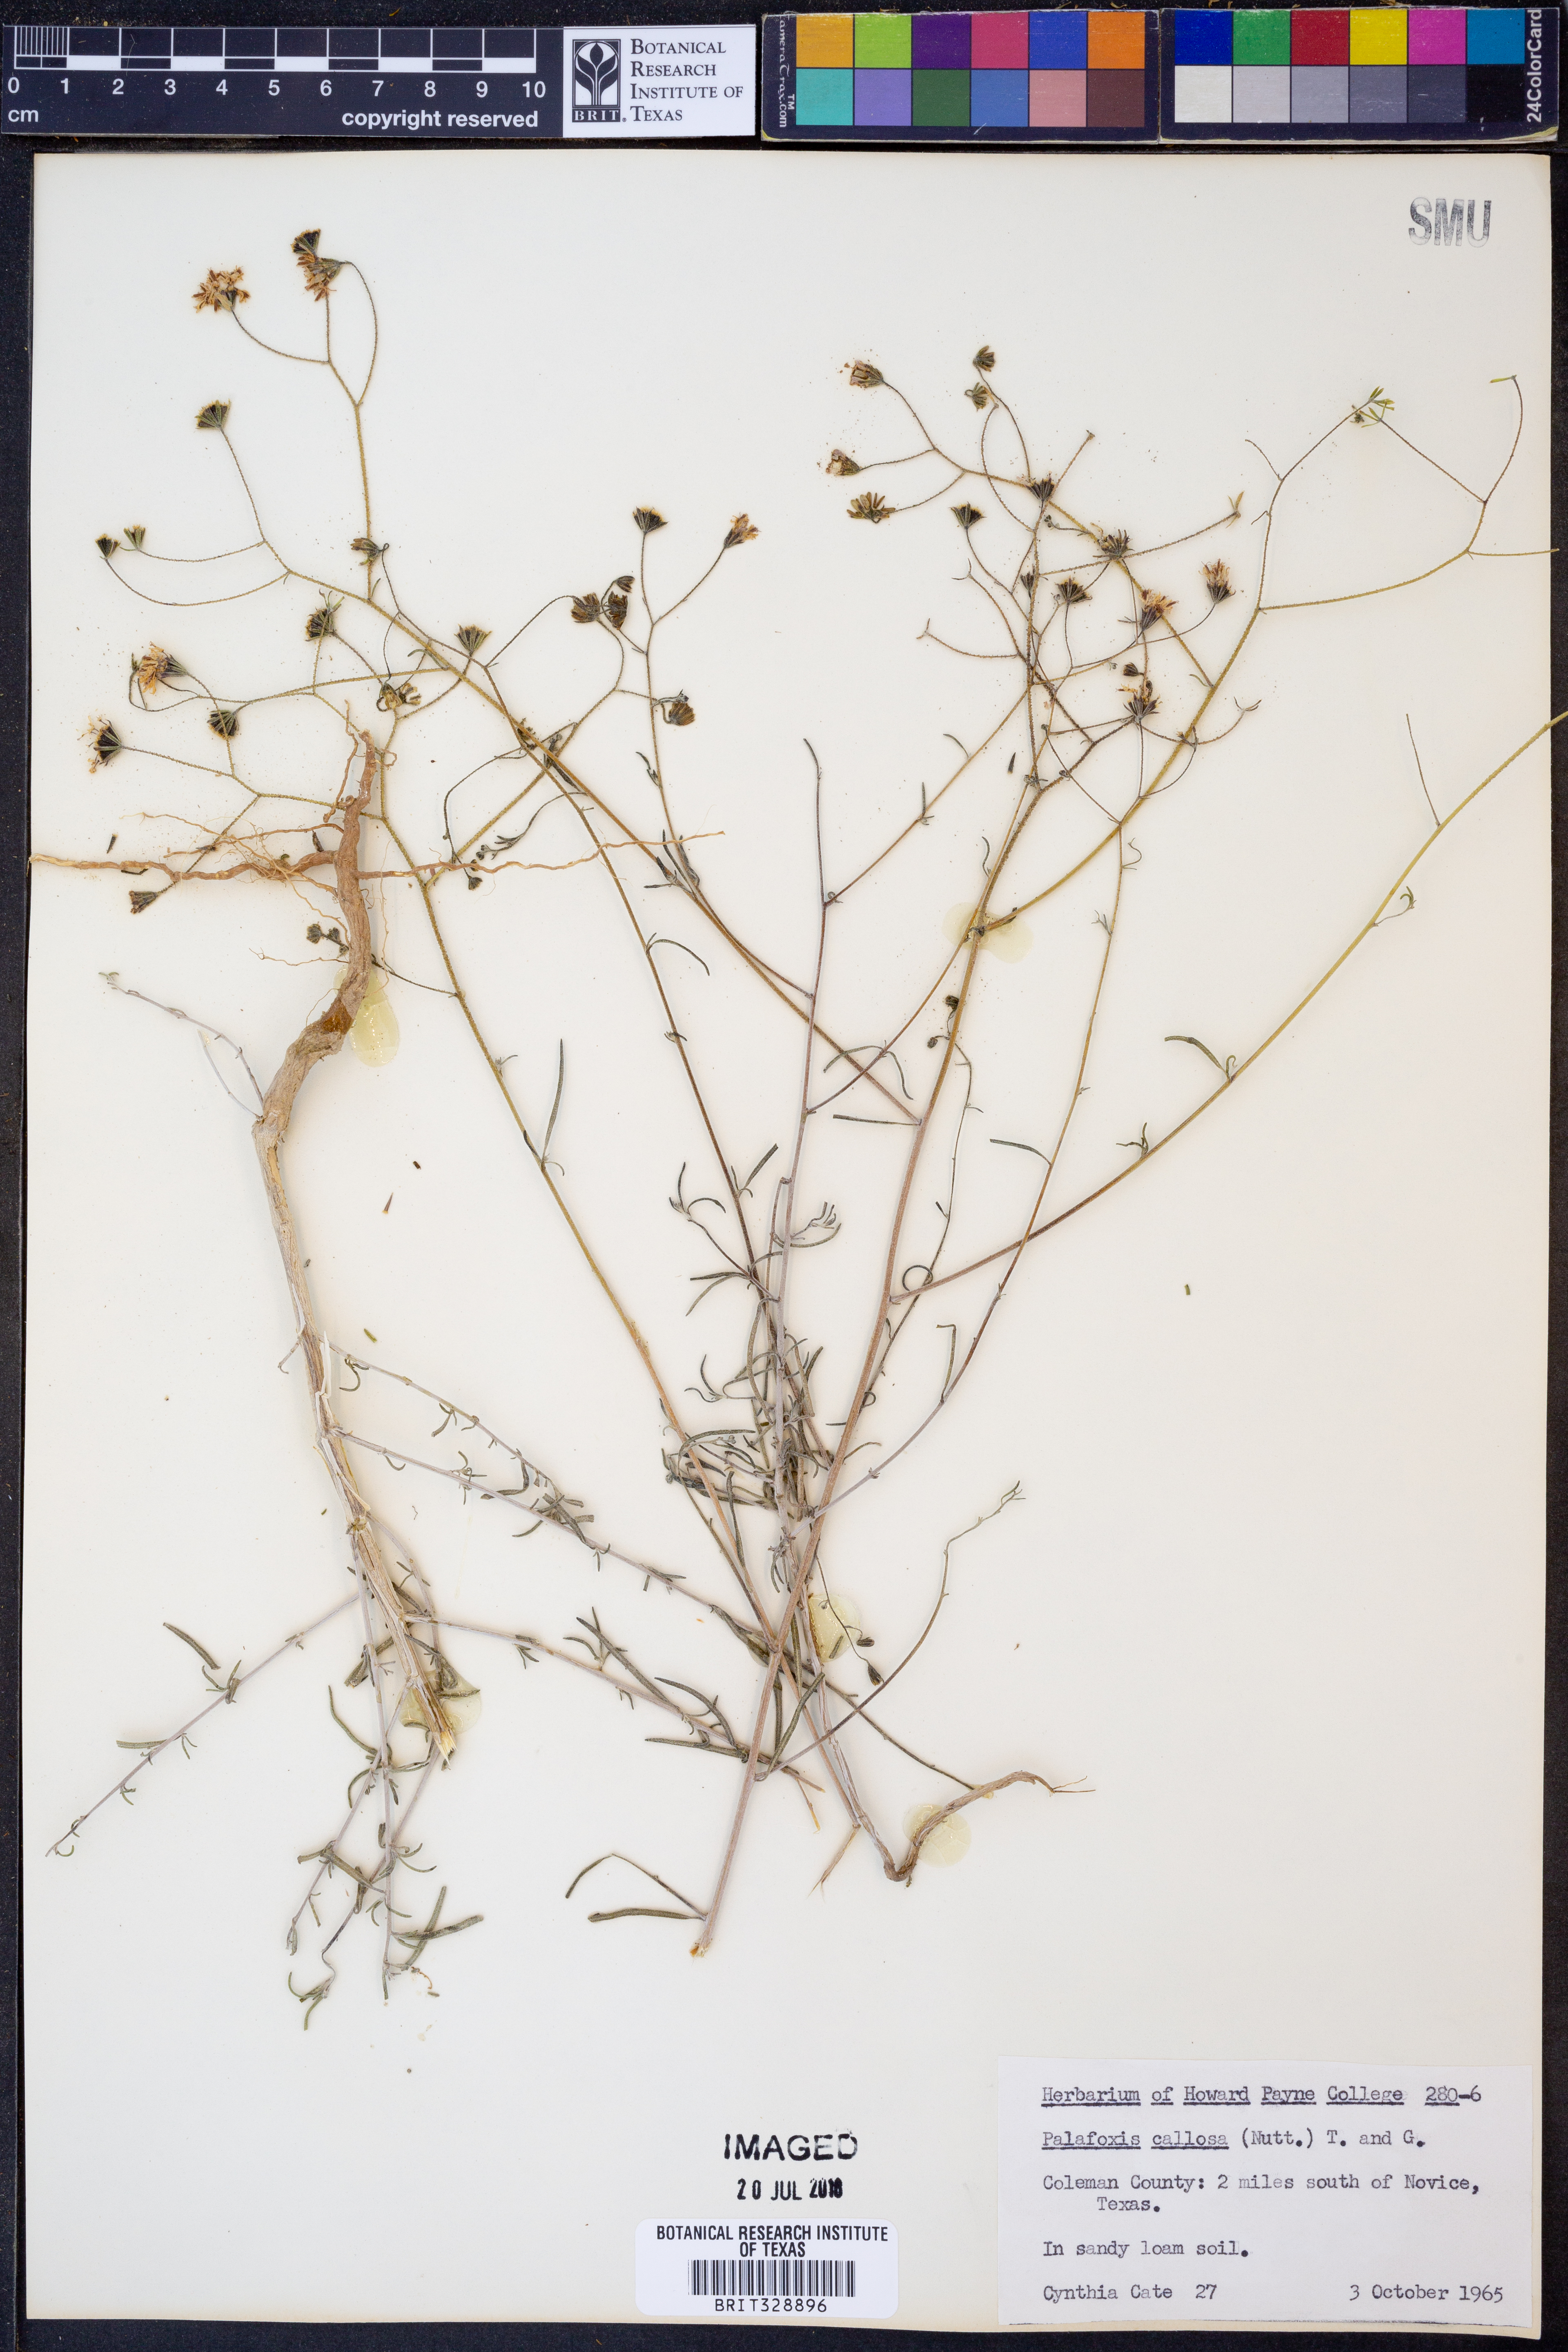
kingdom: Plantae
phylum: Tracheophyta
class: Magnoliopsida
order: Asterales
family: Asteraceae
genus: Palafoxia
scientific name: Palafoxia callosa
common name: Small palafox
